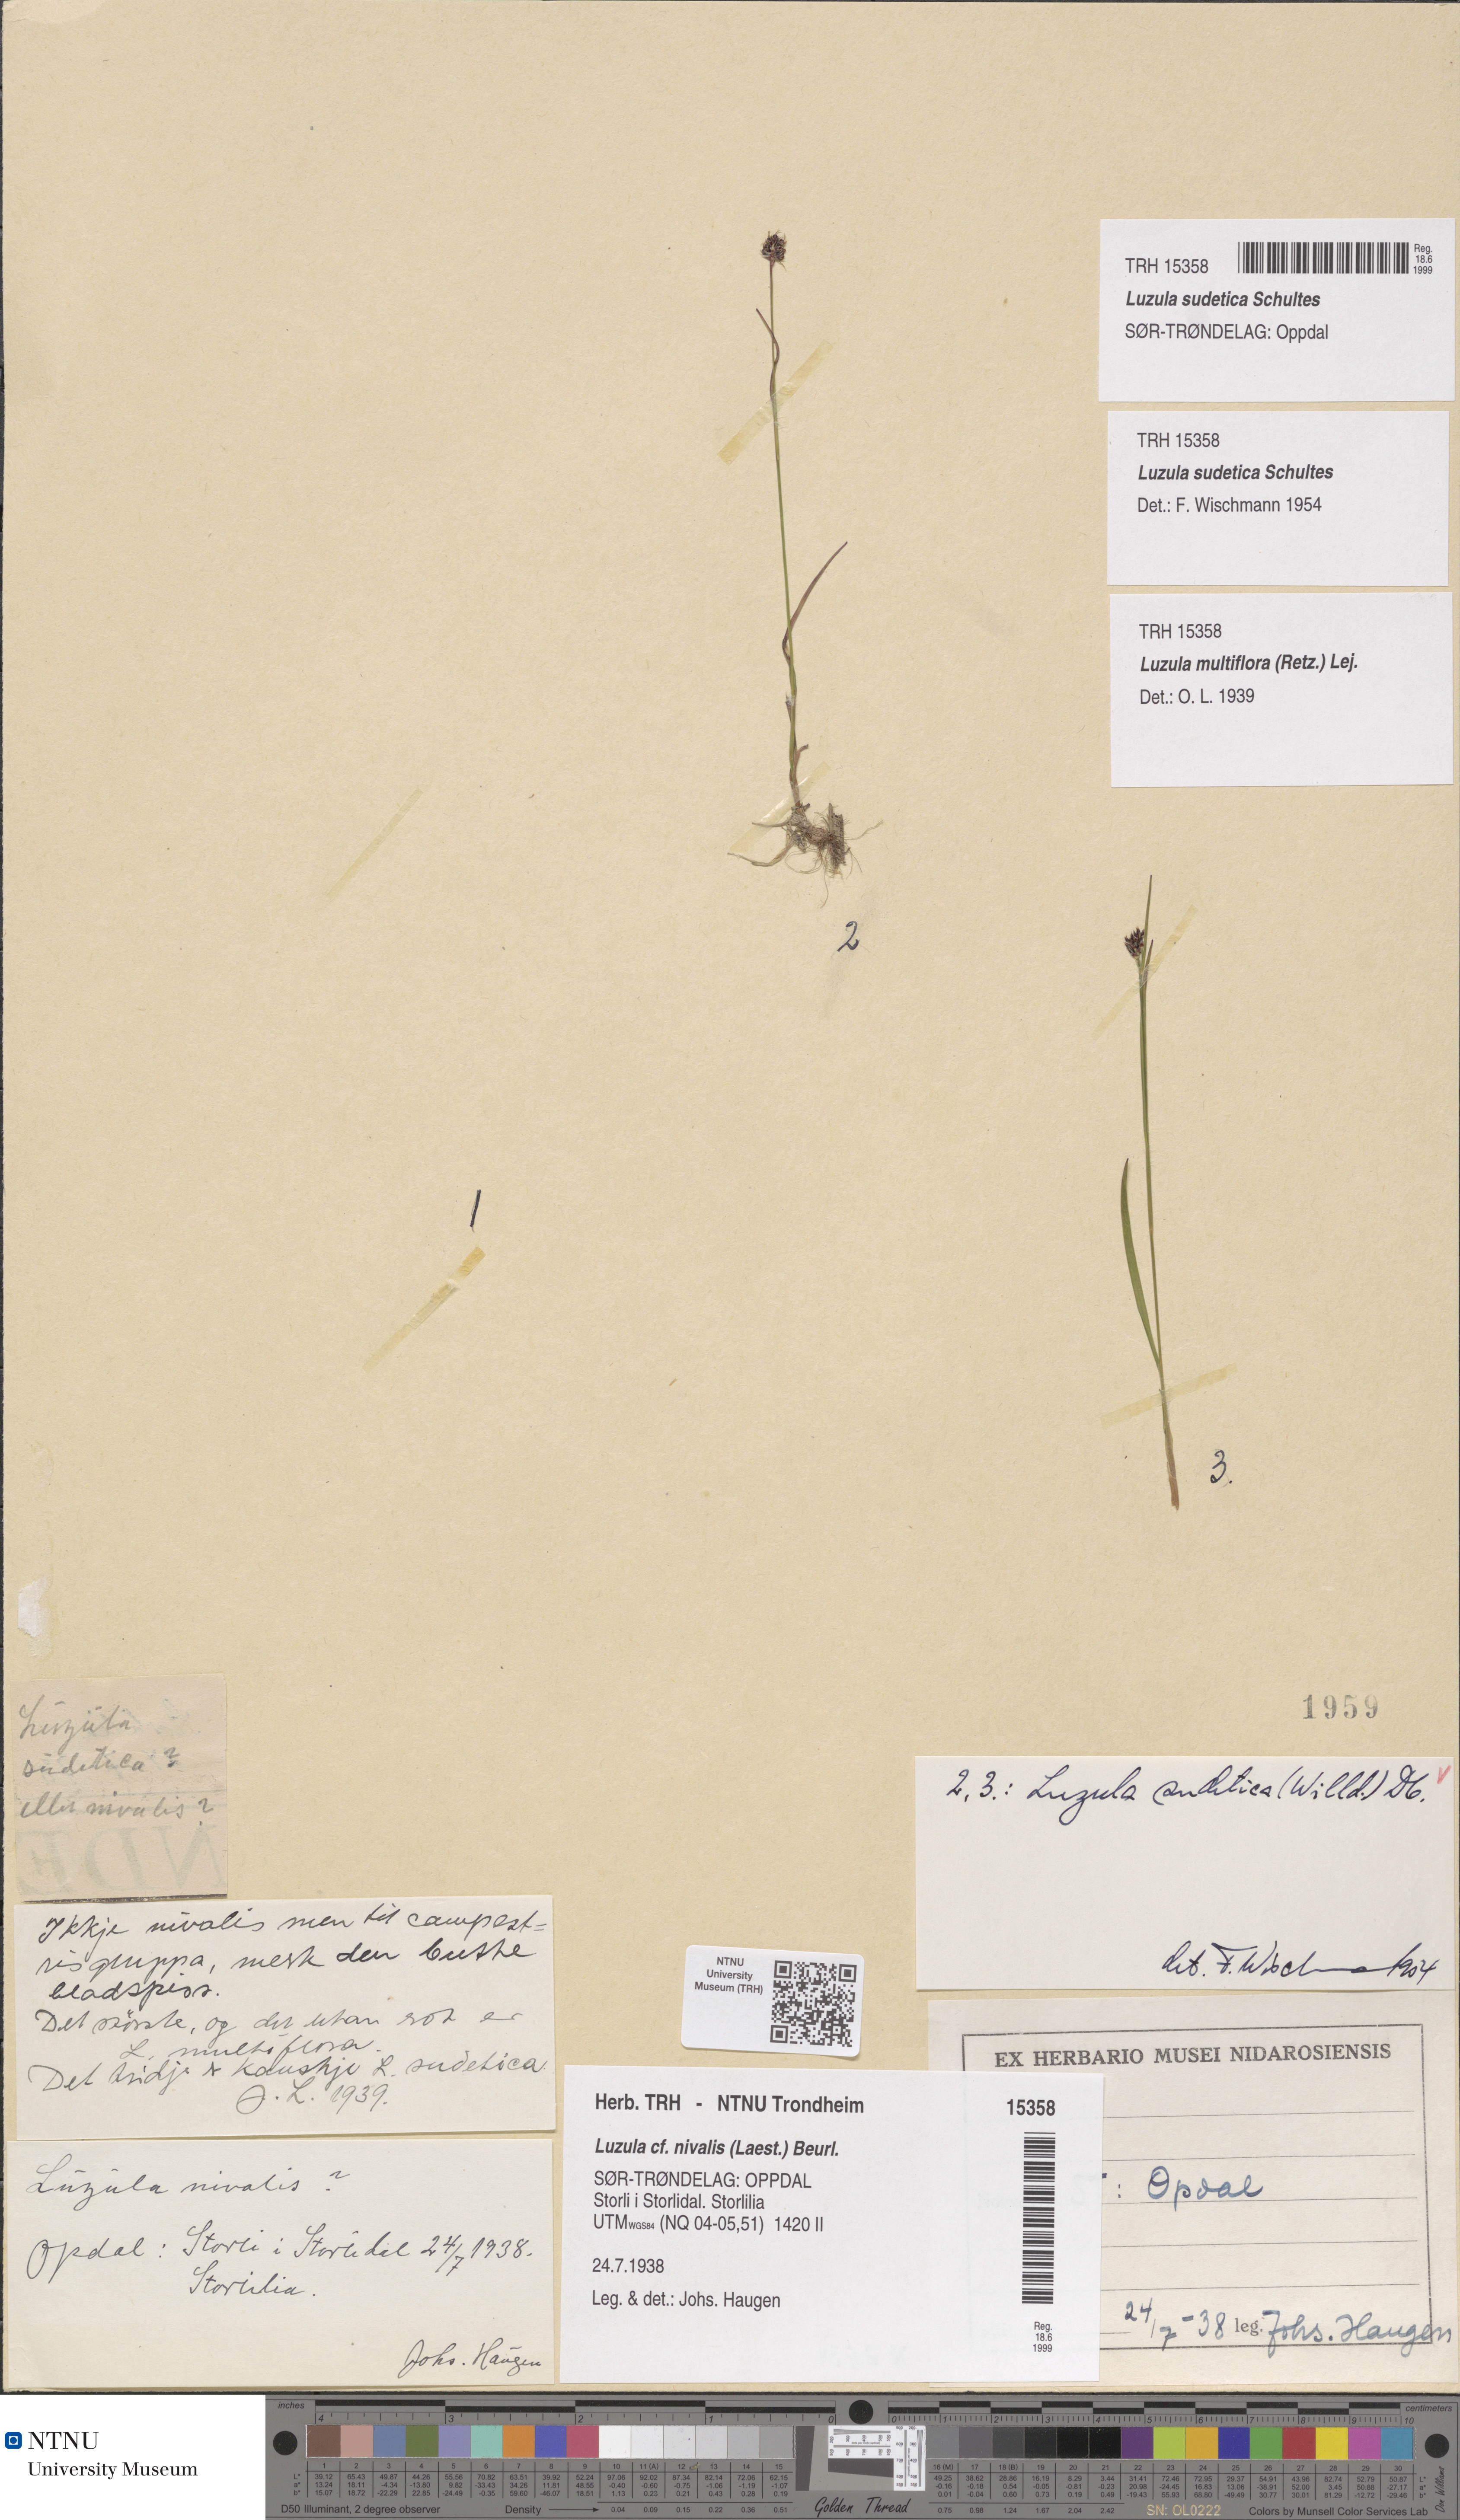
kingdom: Plantae
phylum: Tracheophyta
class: Liliopsida
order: Poales
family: Juncaceae
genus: Luzula
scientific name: Luzula sudetica
